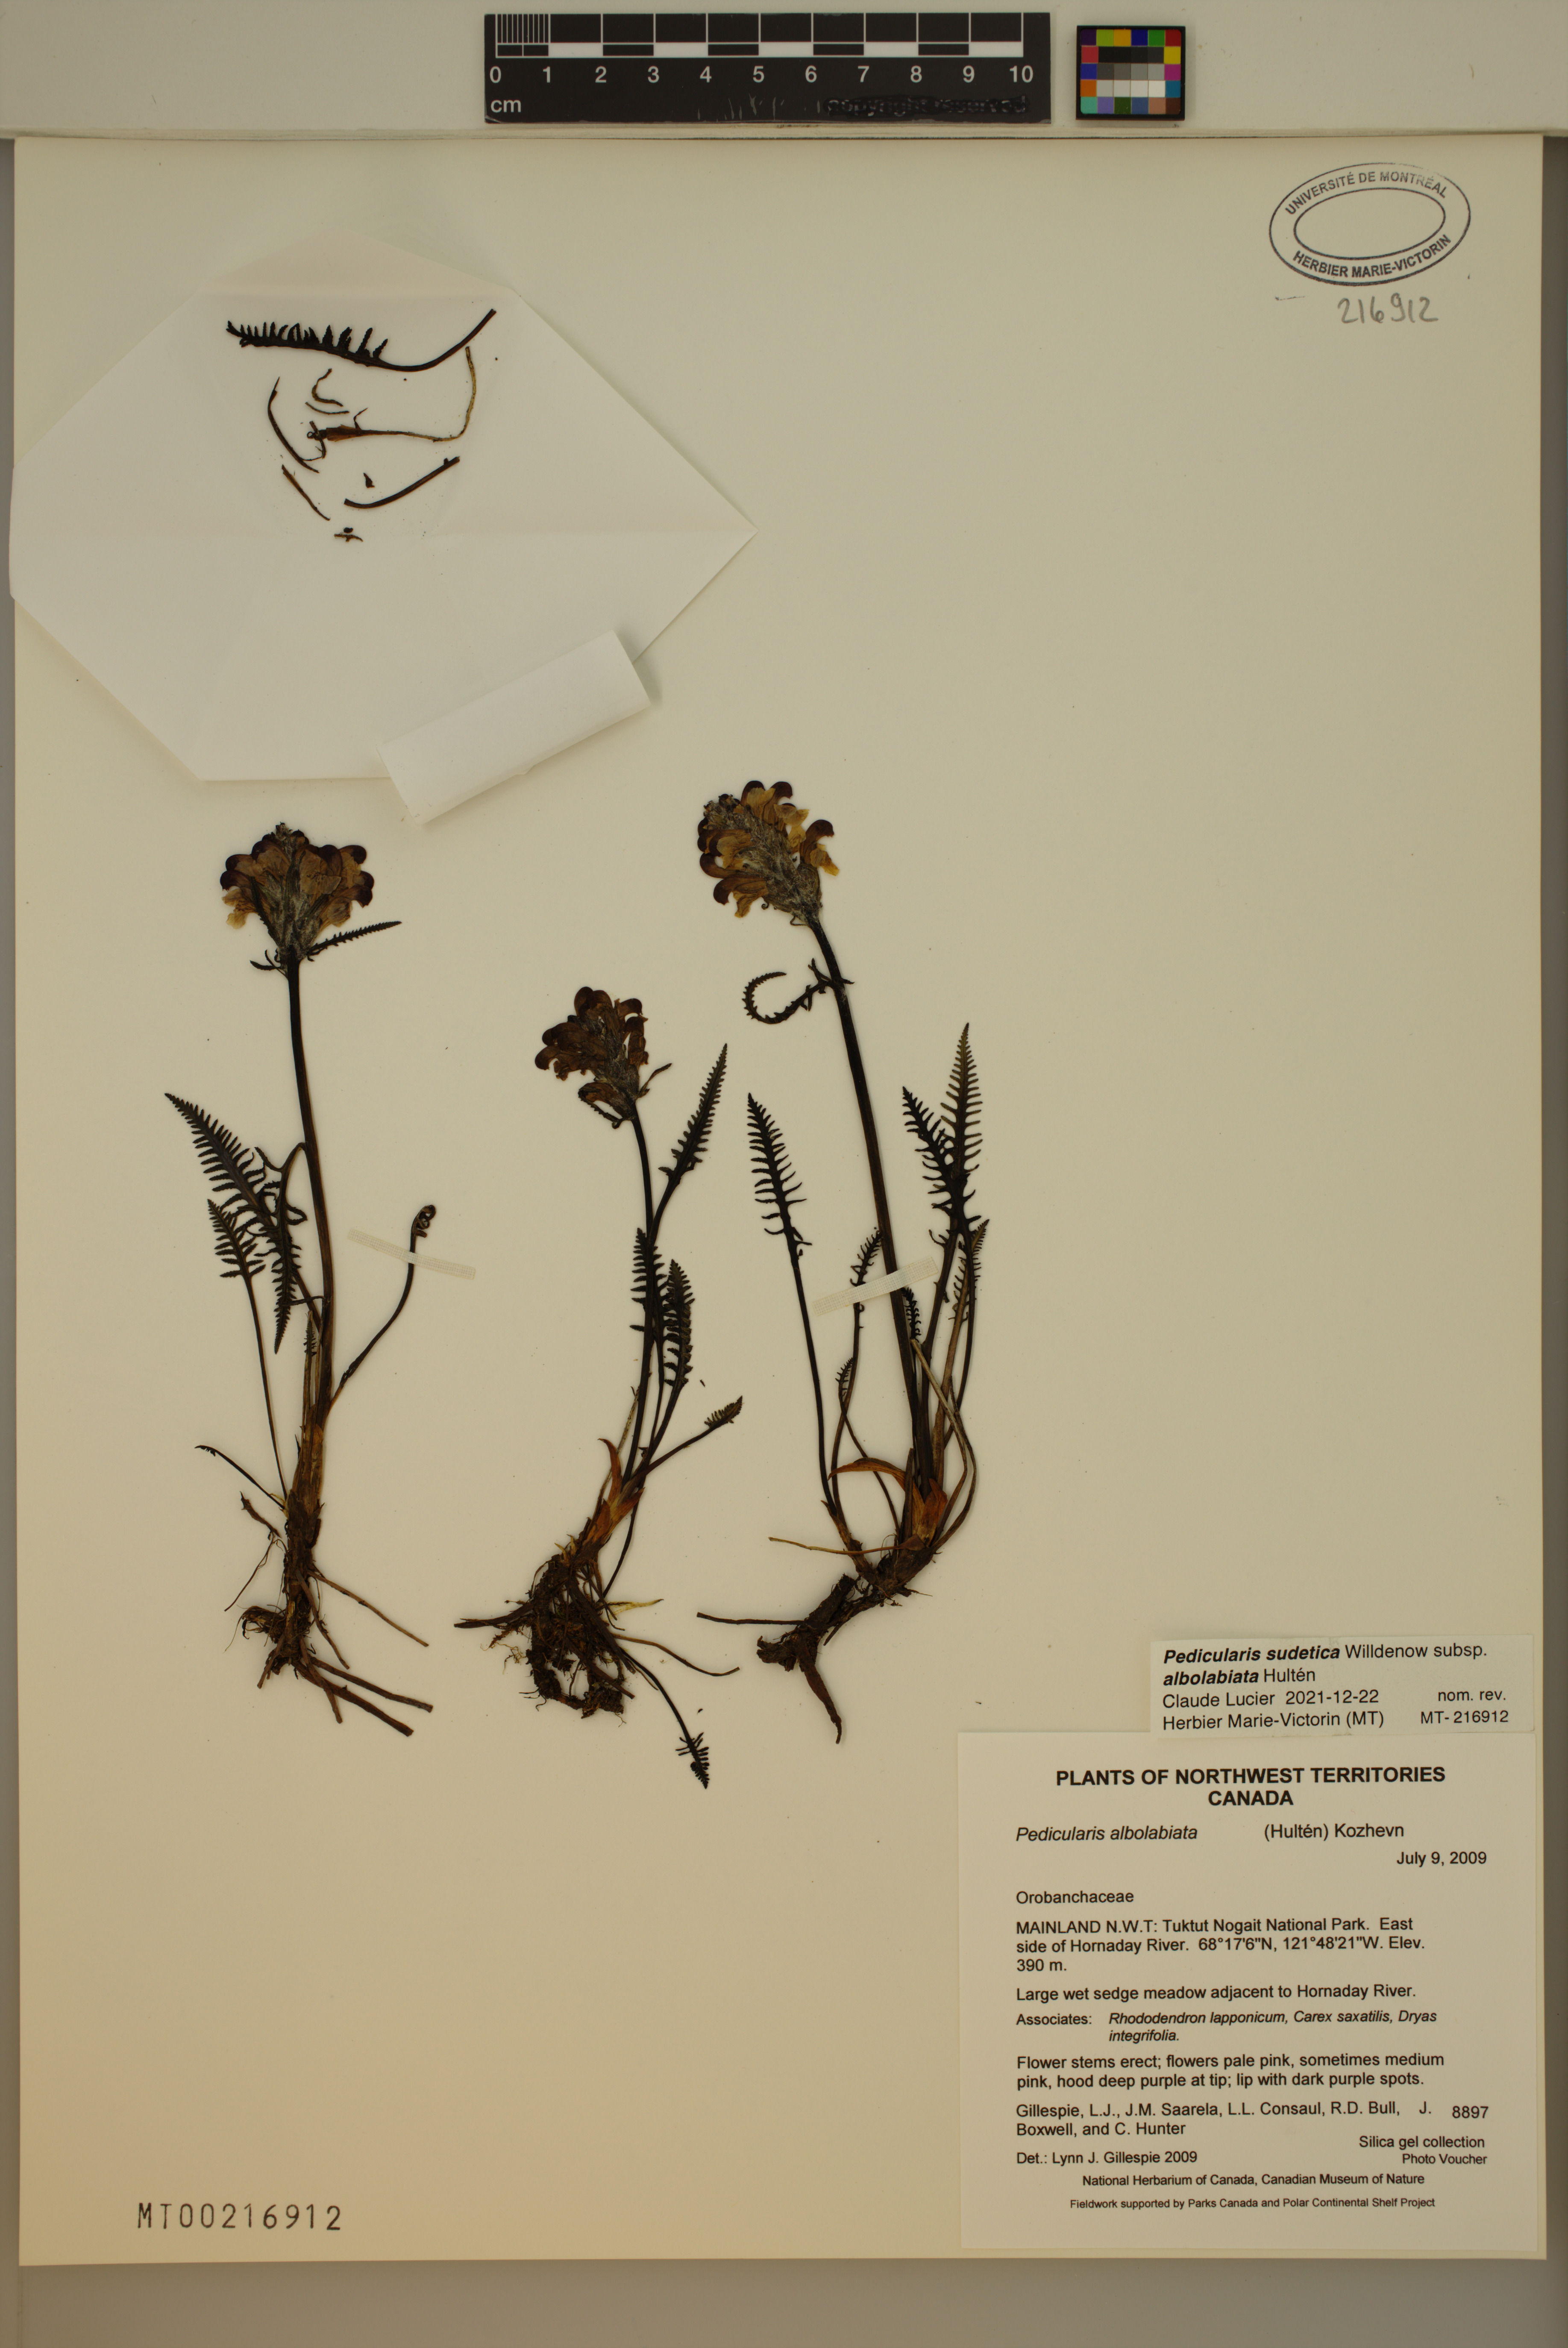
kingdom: Plantae
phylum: Tracheophyta
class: Magnoliopsida
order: Lamiales
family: Orobanchaceae
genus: Pedicularis
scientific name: Pedicularis novaiae-zemliae
